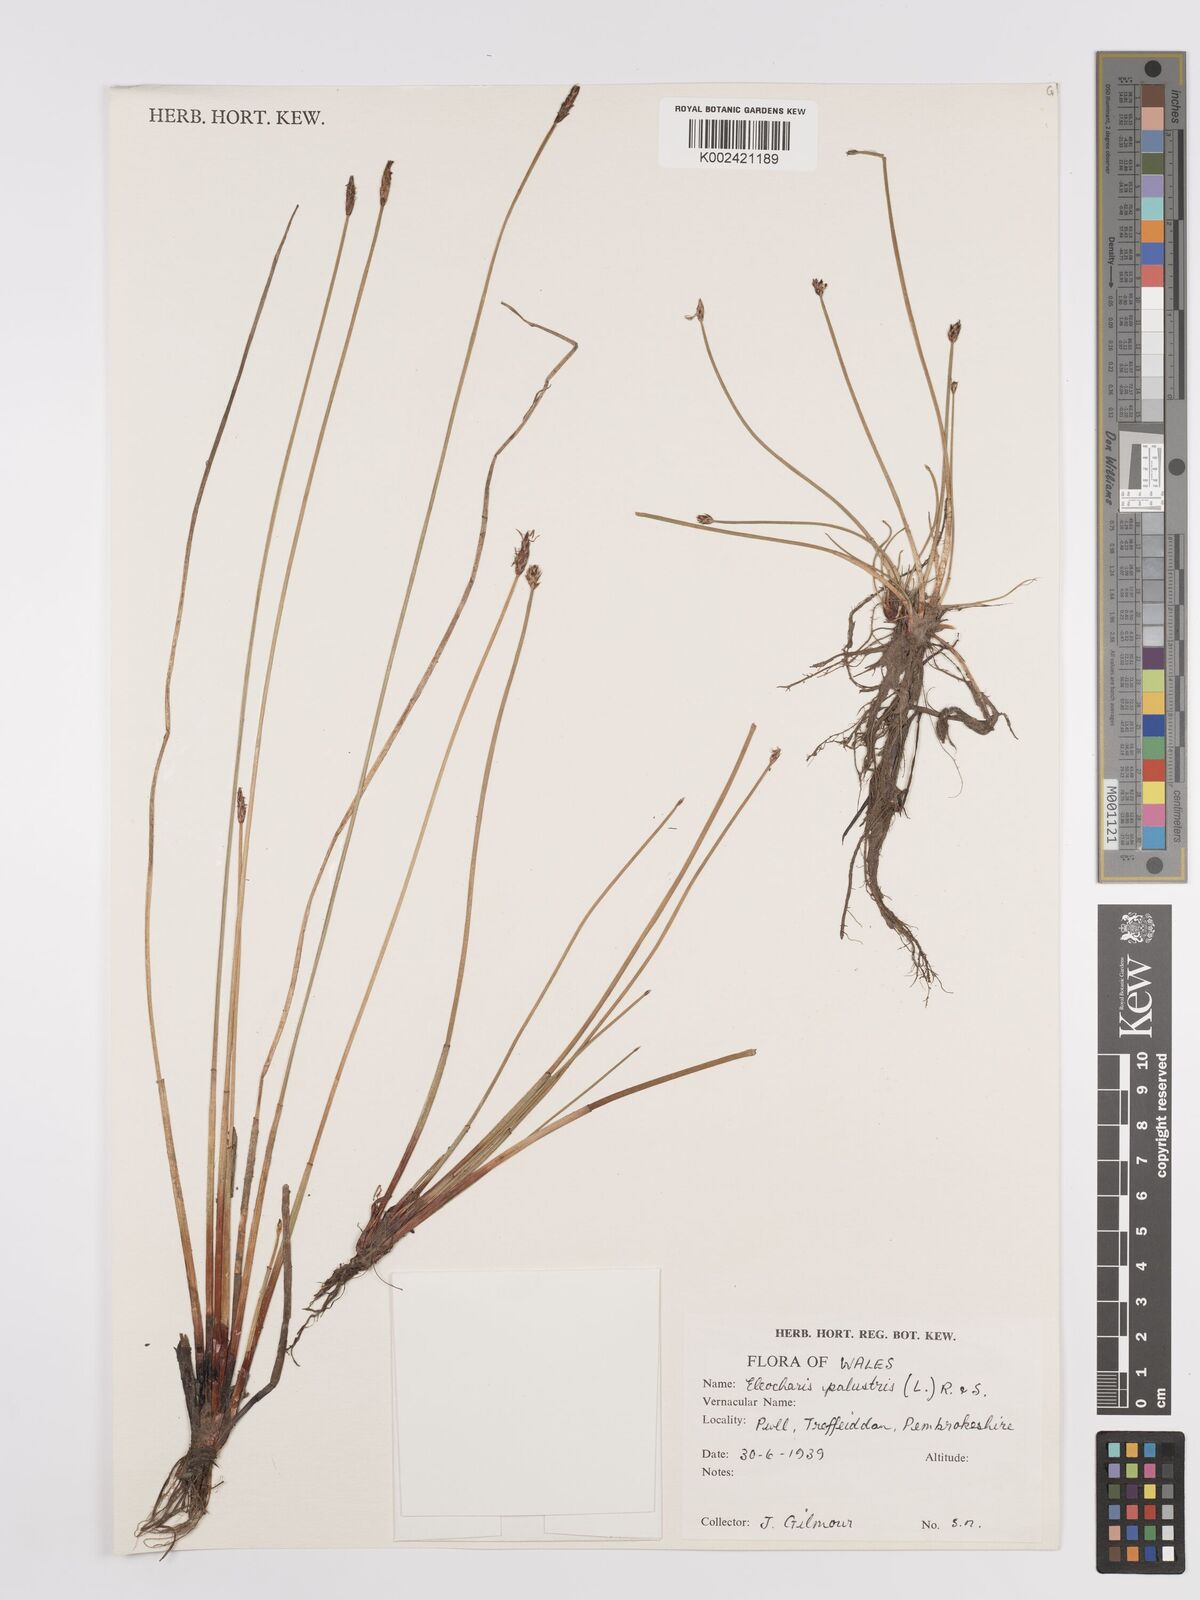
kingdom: Plantae
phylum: Tracheophyta
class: Liliopsida
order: Poales
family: Cyperaceae
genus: Eleocharis
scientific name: Eleocharis palustris
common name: Common spike-rush
